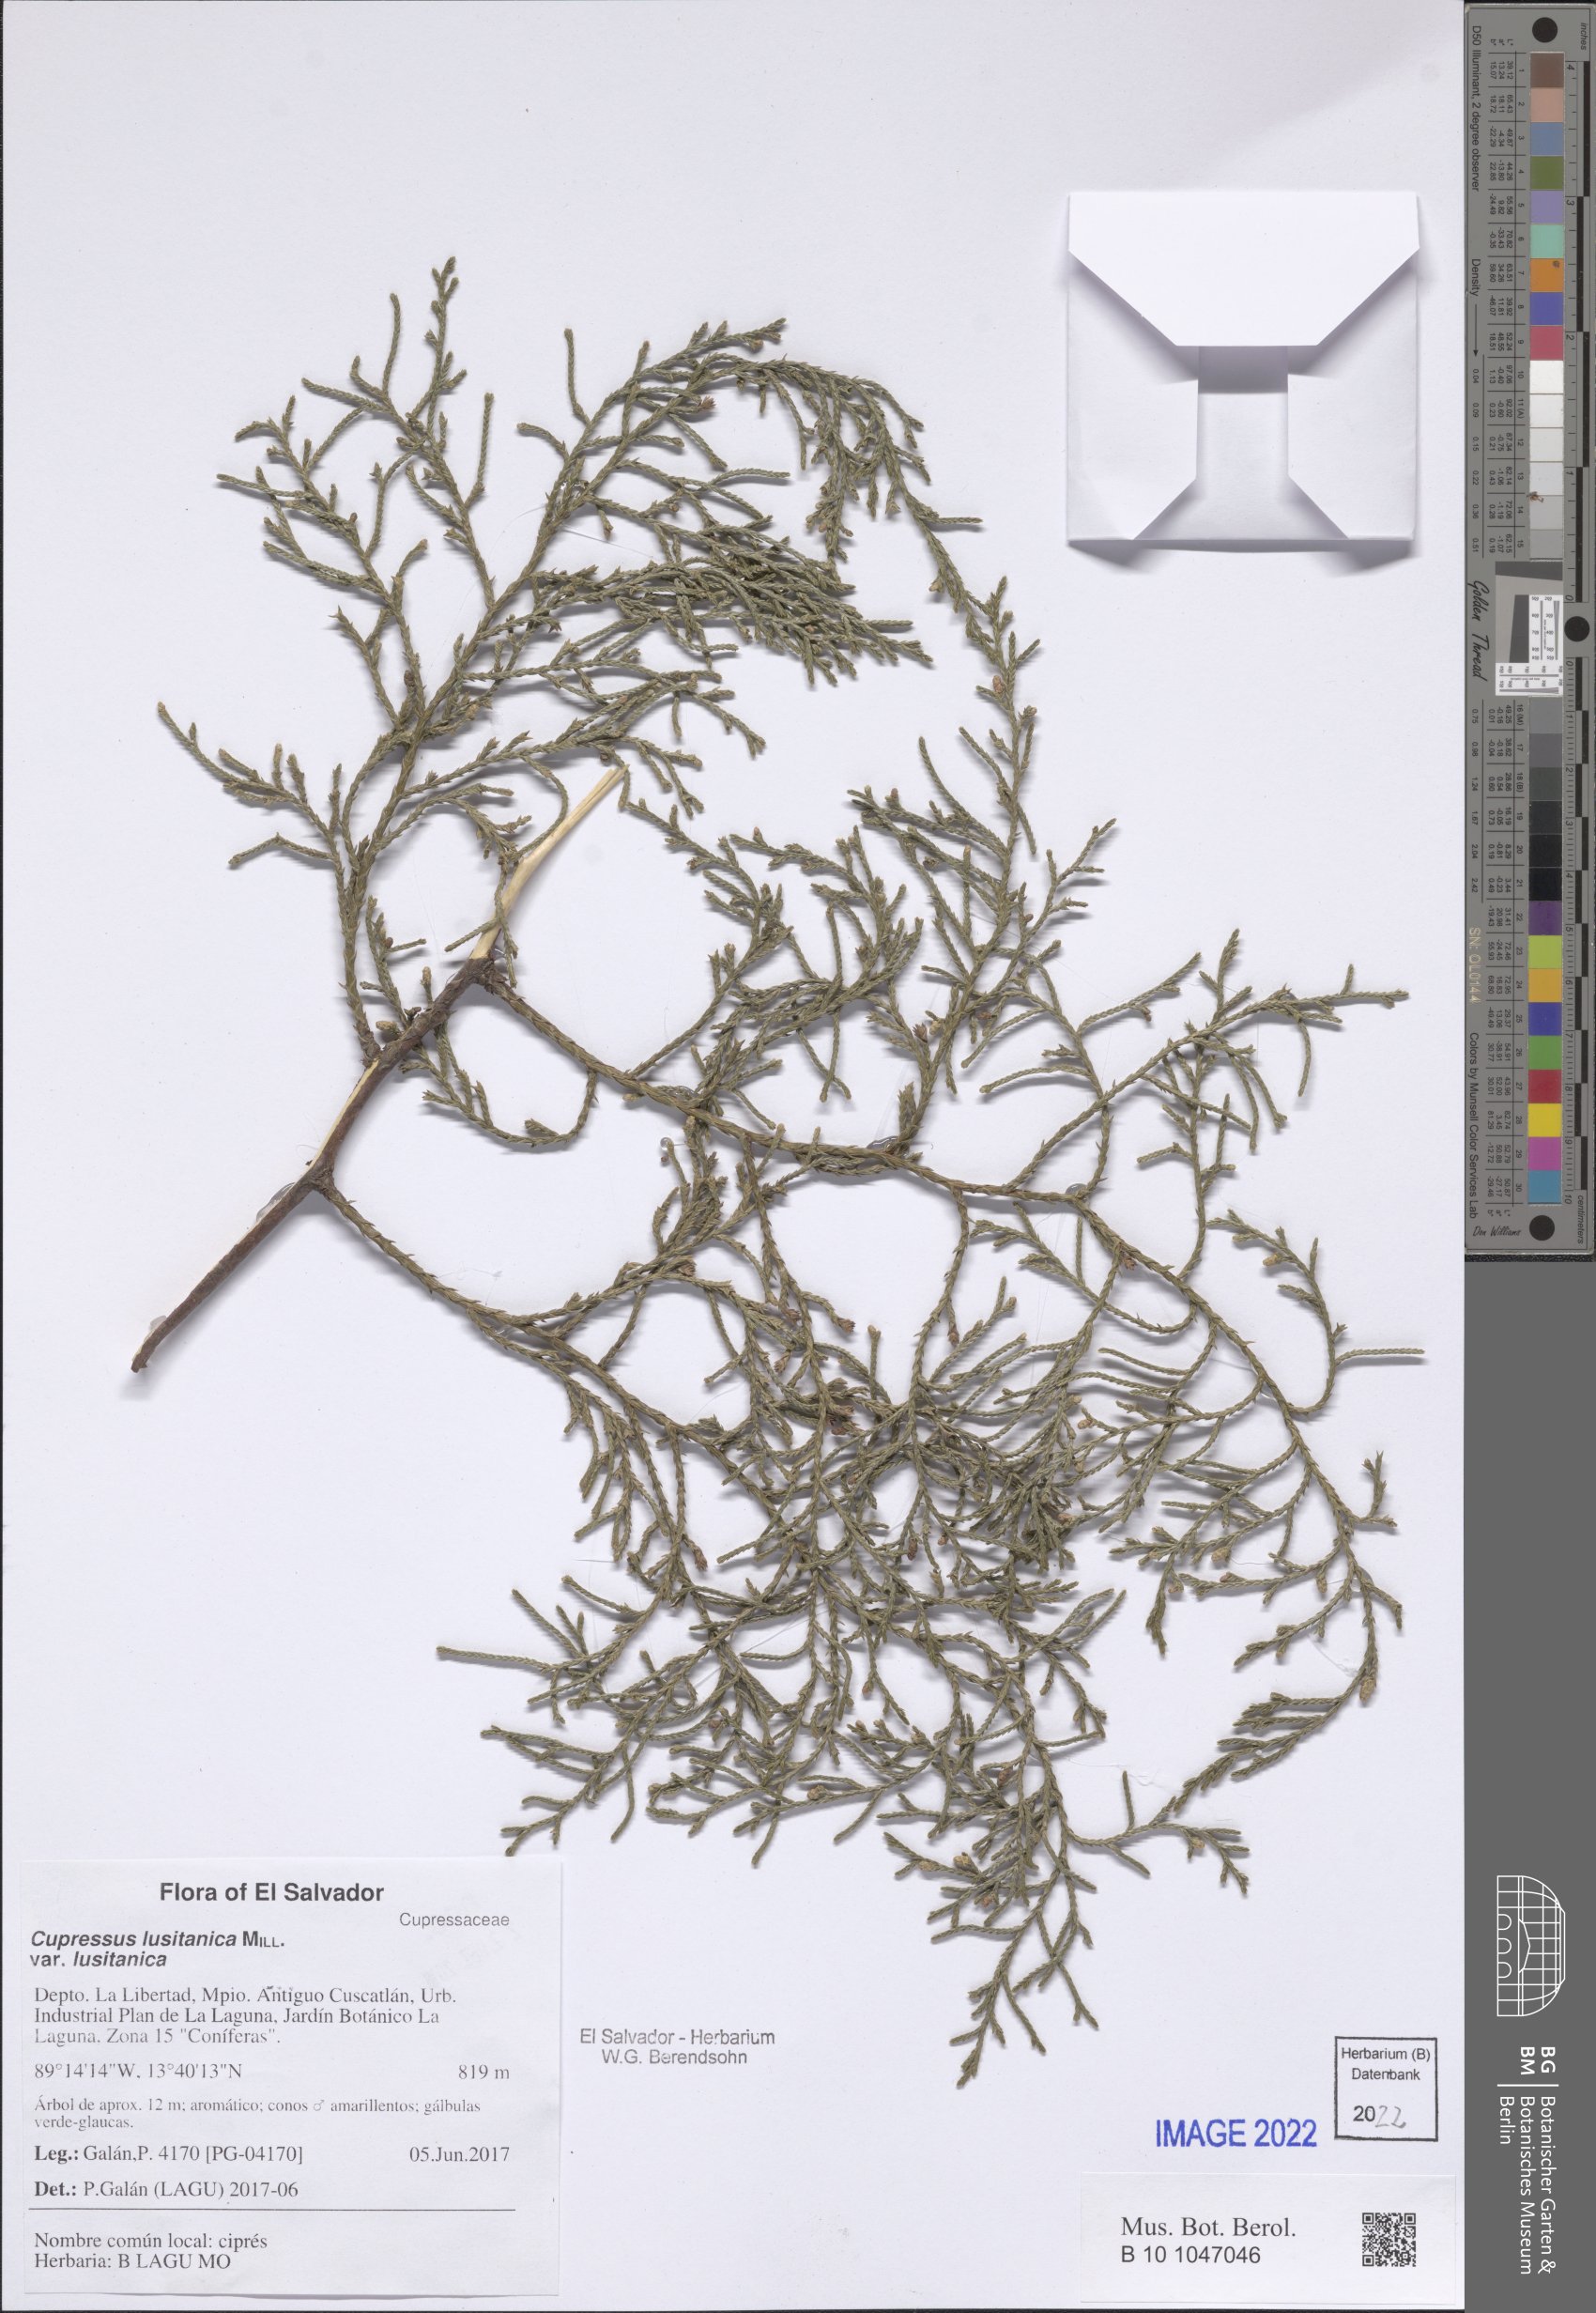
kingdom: Plantae
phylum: Tracheophyta
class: Pinopsida
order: Pinales
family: Cupressaceae
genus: Cupressus
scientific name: Cupressus lusitanica
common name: Mexican cypress
